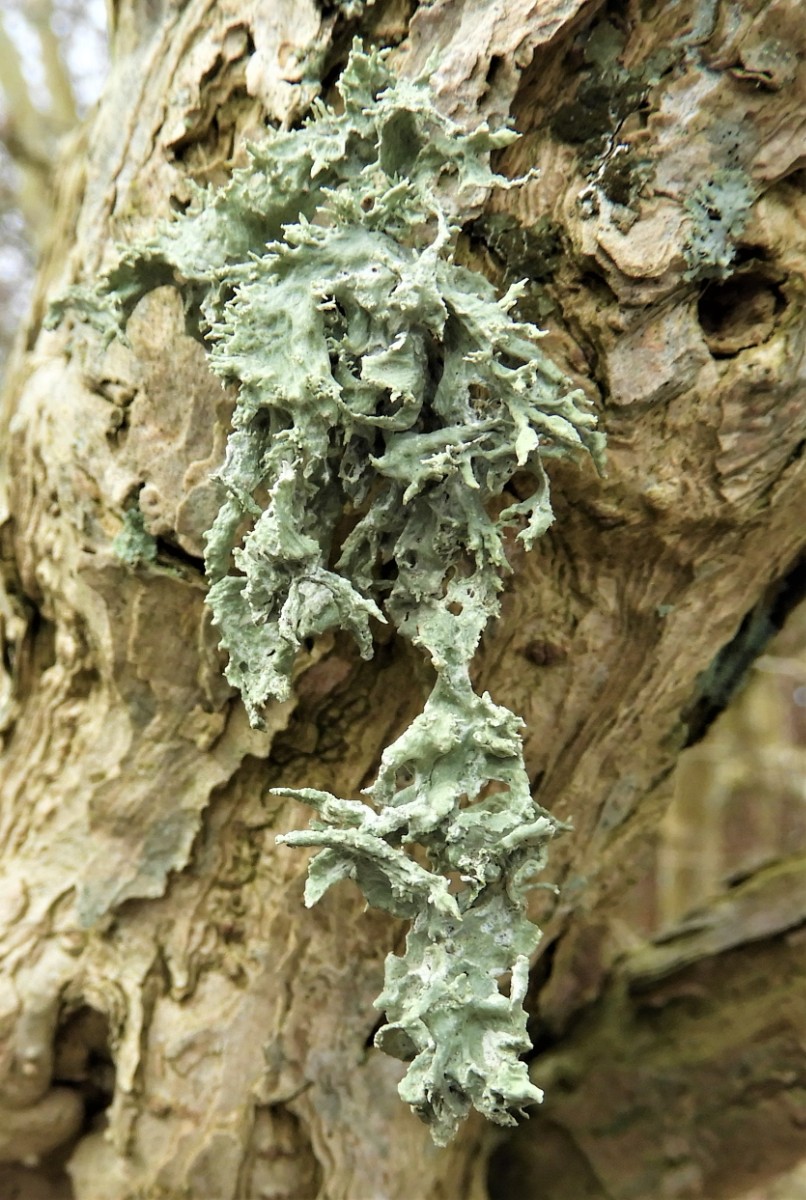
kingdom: Fungi
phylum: Ascomycota
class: Lecanoromycetes
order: Lecanorales
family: Ramalinaceae
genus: Ramalina
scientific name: Ramalina
